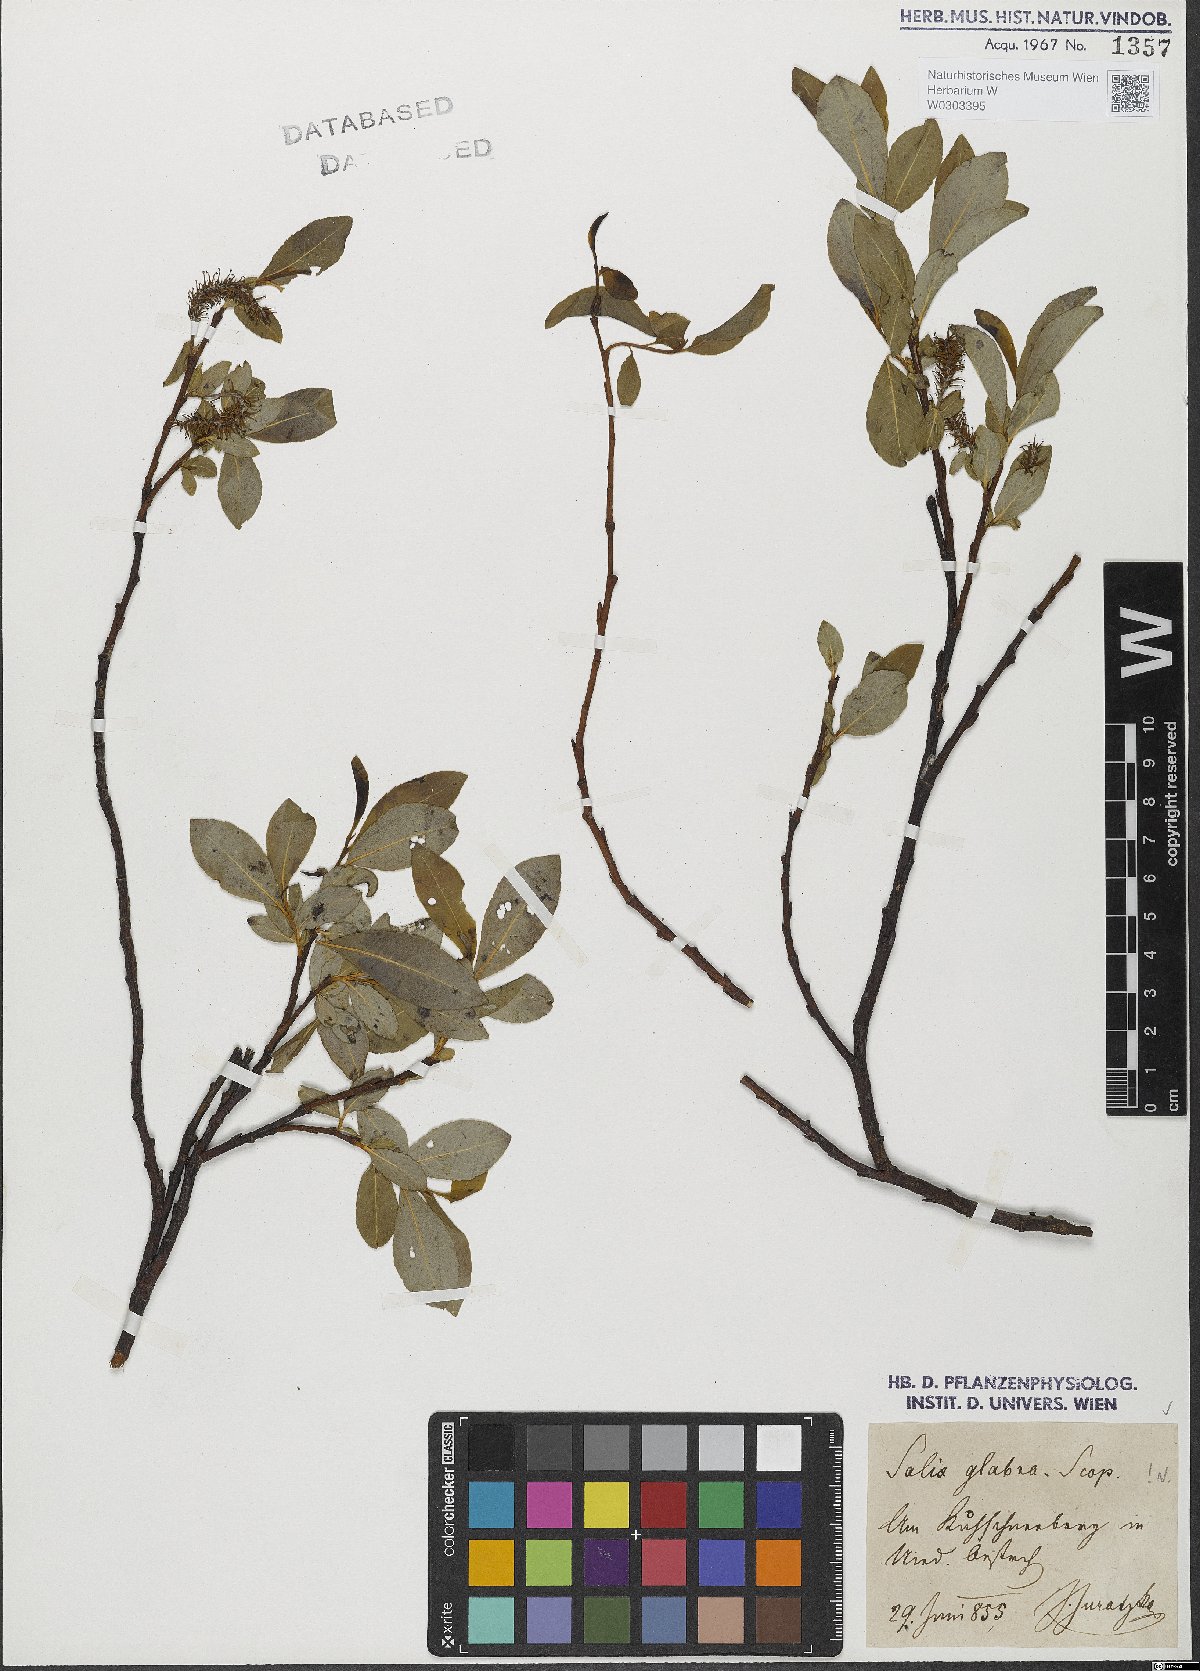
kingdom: Plantae
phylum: Tracheophyta
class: Magnoliopsida
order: Malpighiales
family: Salicaceae
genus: Salix
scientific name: Salix glabra
